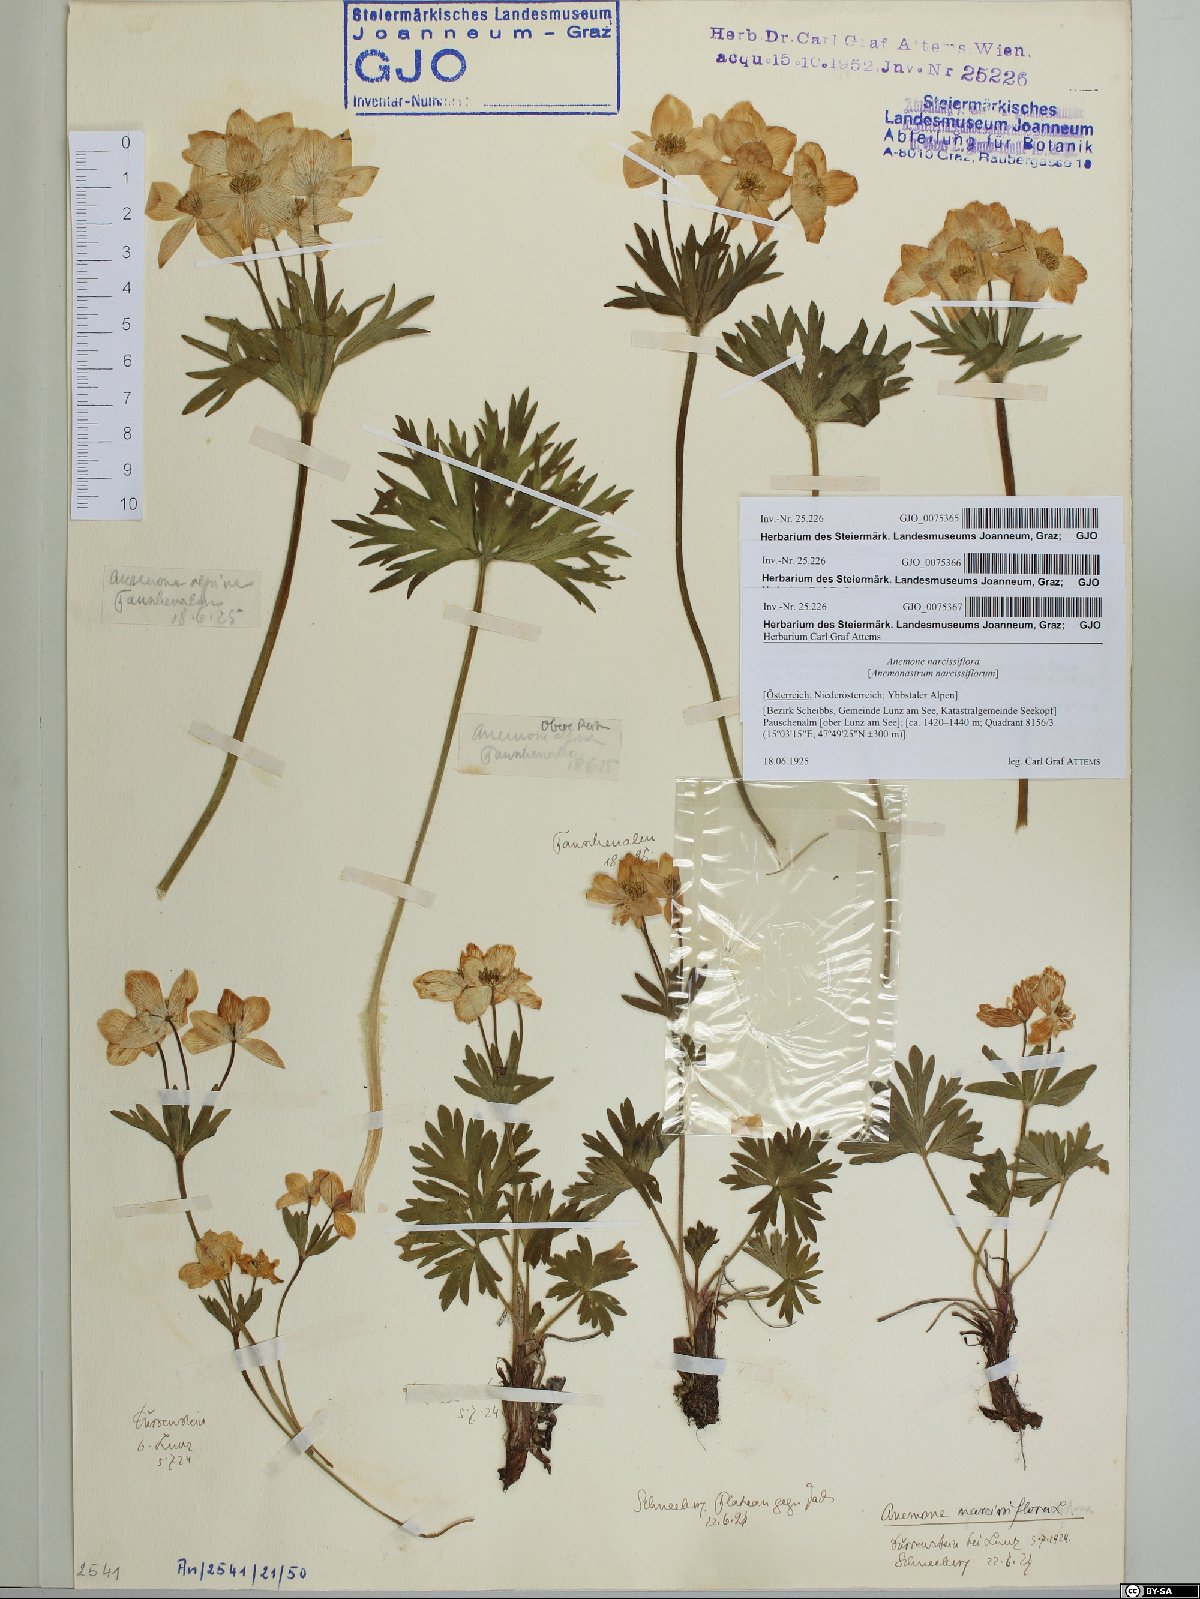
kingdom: Plantae
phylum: Tracheophyta
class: Magnoliopsida
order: Ranunculales
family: Ranunculaceae
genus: Anemonastrum
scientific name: Anemonastrum narcissiflorum
